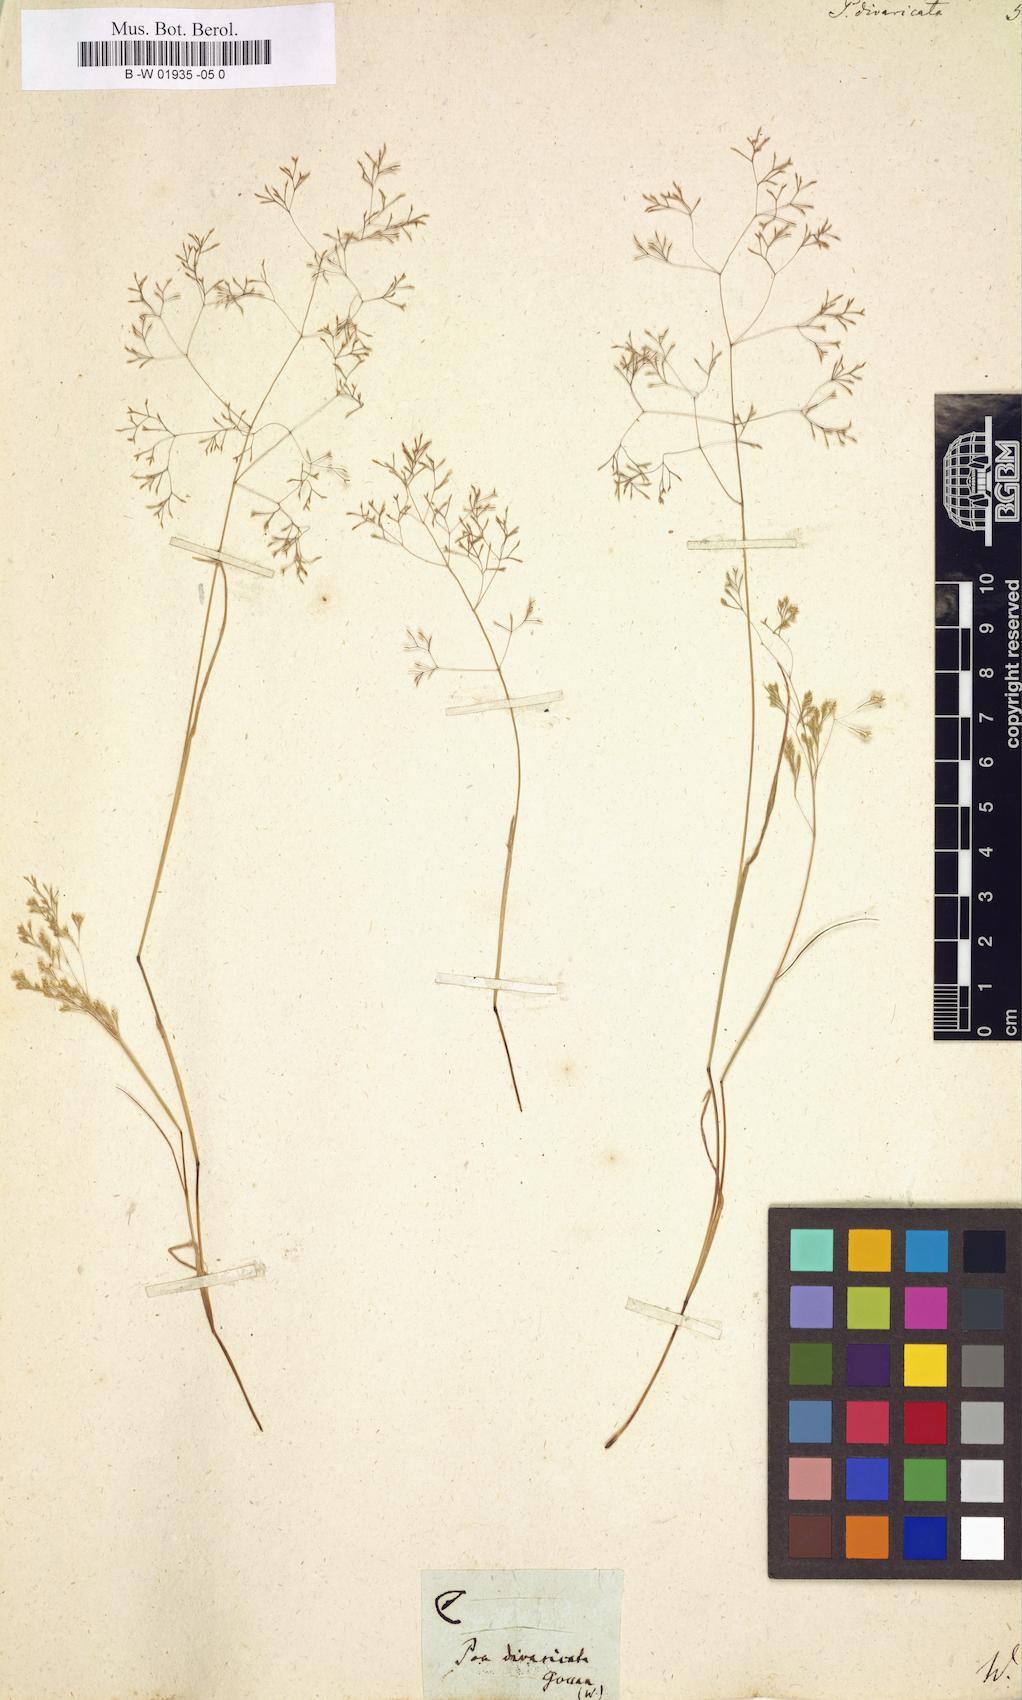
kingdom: Plantae
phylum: Tracheophyta
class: Liliopsida
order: Poales
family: Poaceae
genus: Sphenopus
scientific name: Sphenopus divaricatus
